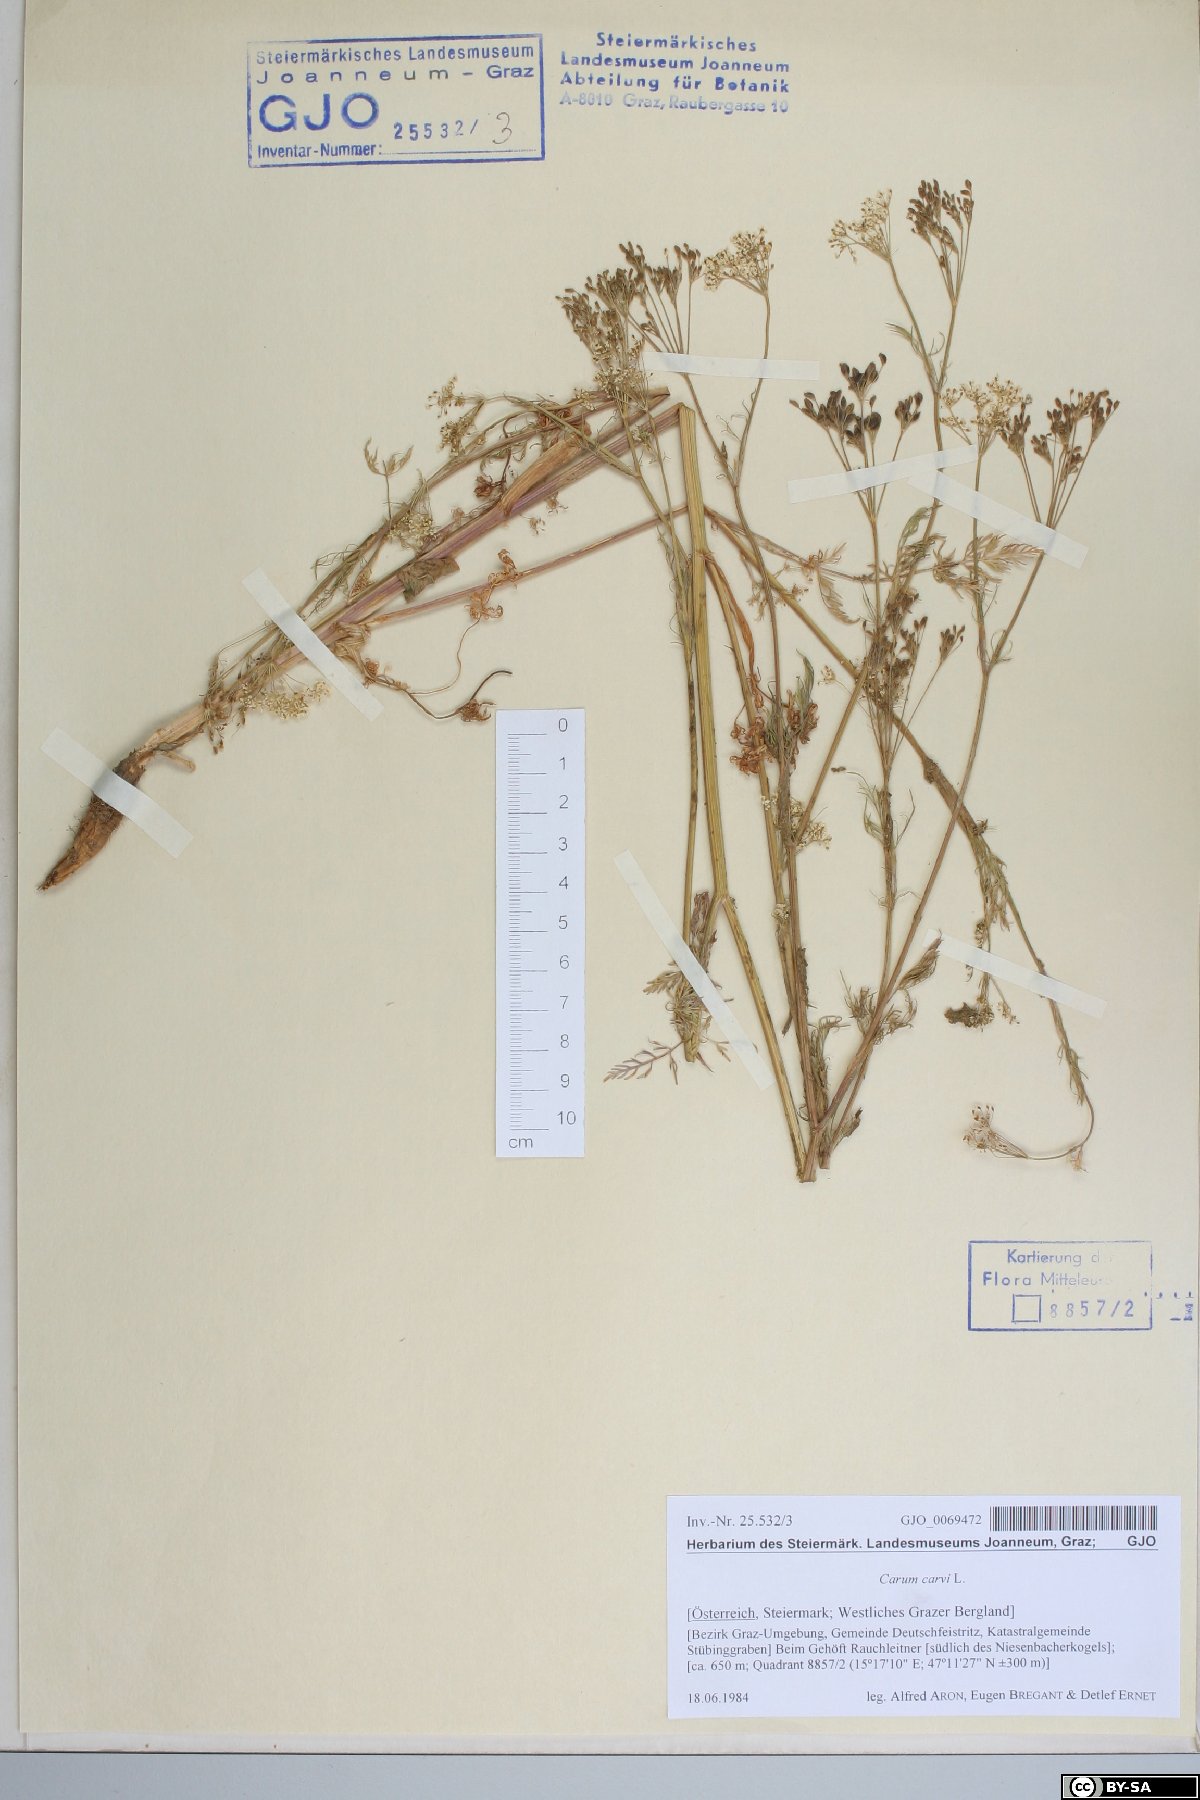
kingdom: Plantae
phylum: Tracheophyta
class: Magnoliopsida
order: Apiales
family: Apiaceae
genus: Carum
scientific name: Carum carvi
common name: Caraway
